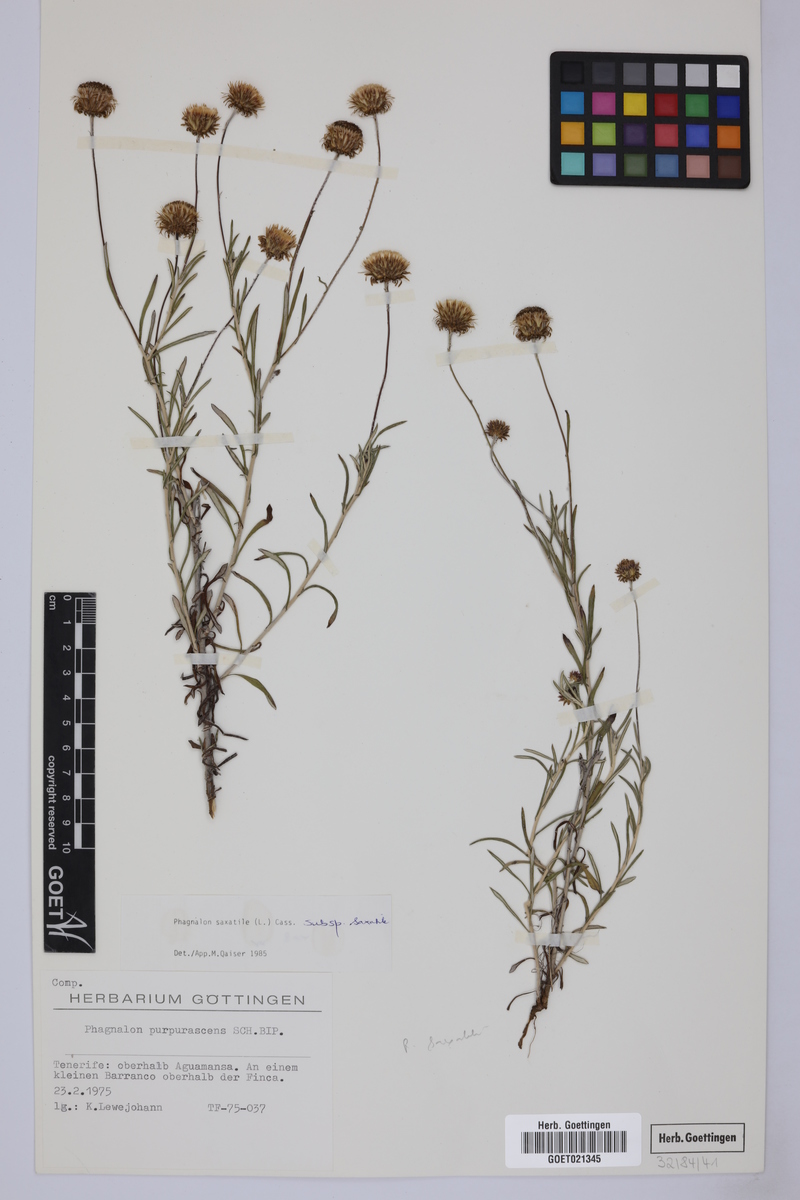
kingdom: Plantae
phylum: Tracheophyta
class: Magnoliopsida
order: Asterales
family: Asteraceae
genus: Phagnalon
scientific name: Phagnalon saxatile
